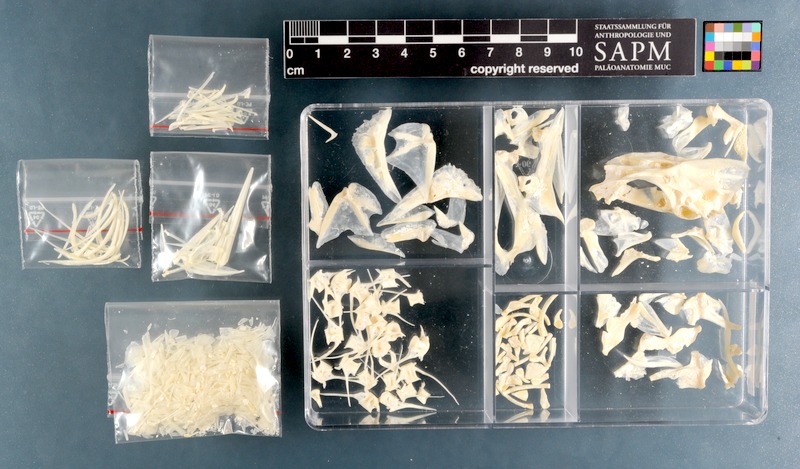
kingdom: Animalia
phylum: Chordata
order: Perciformes
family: Sciaenidae
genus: Umbrina
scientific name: Umbrina canariensis
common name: Baardman
